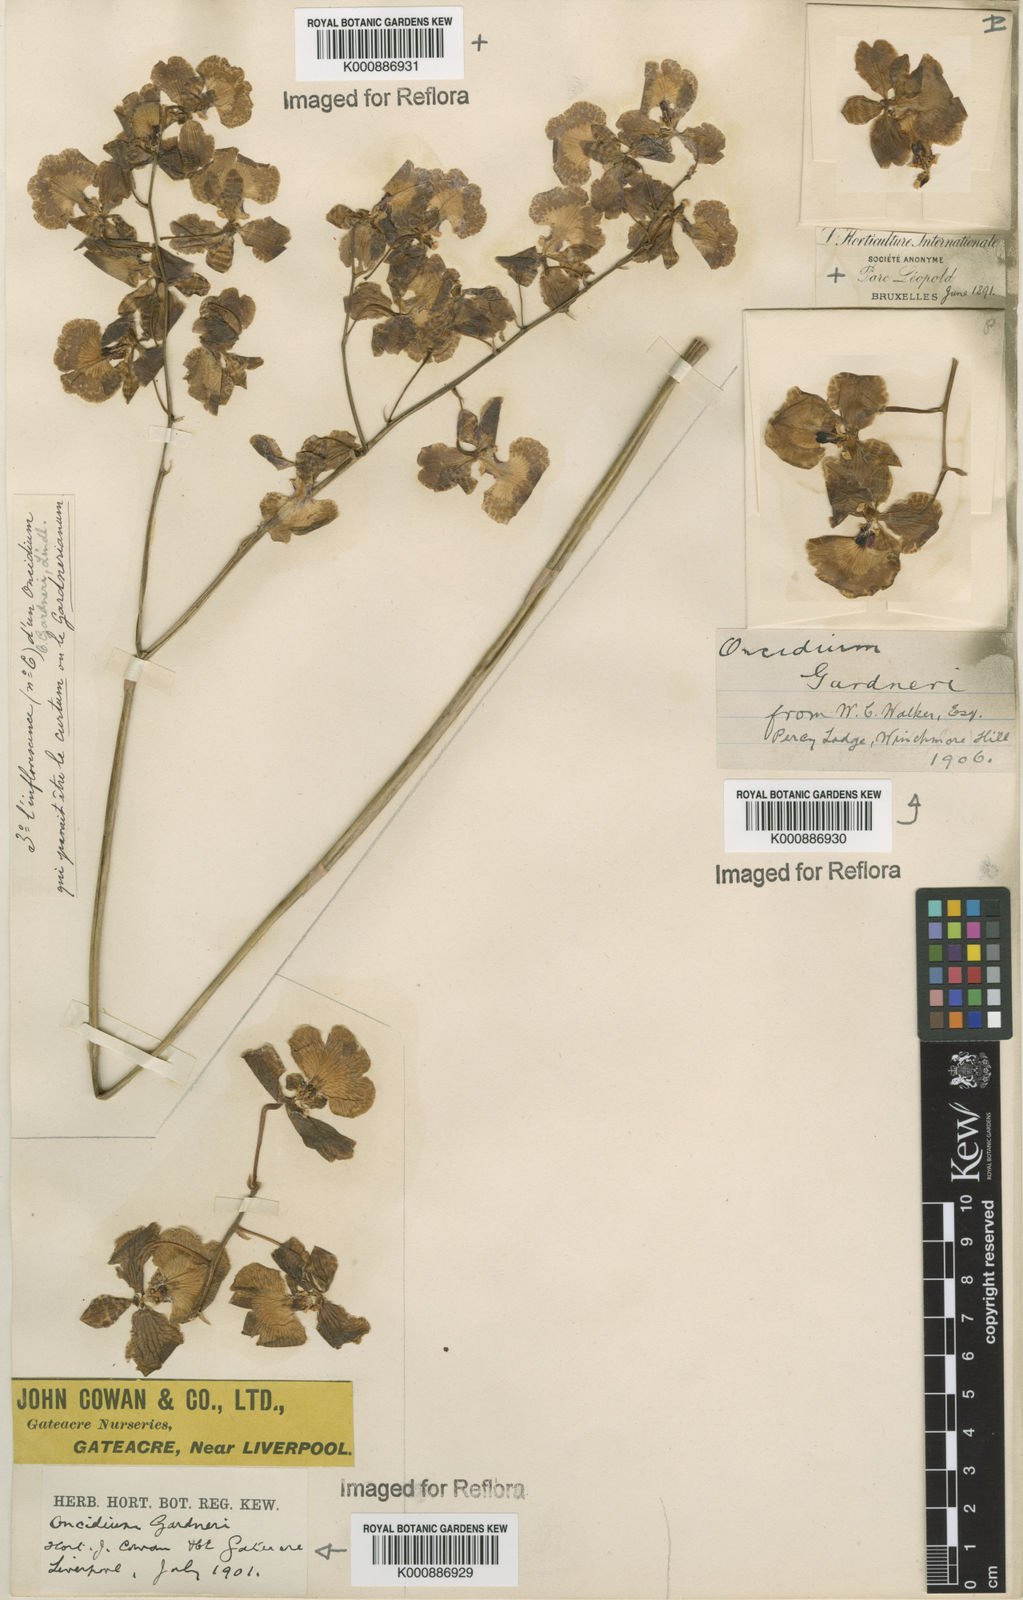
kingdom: Plantae
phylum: Tracheophyta
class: Liliopsida
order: Asparagales
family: Orchidaceae
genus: Gomesa
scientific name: Gomesa gardneri
